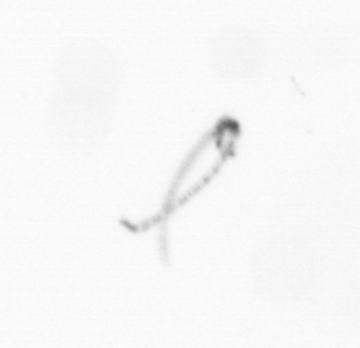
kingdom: Chromista
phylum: Ochrophyta
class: Bacillariophyceae
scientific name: Bacillariophyceae
